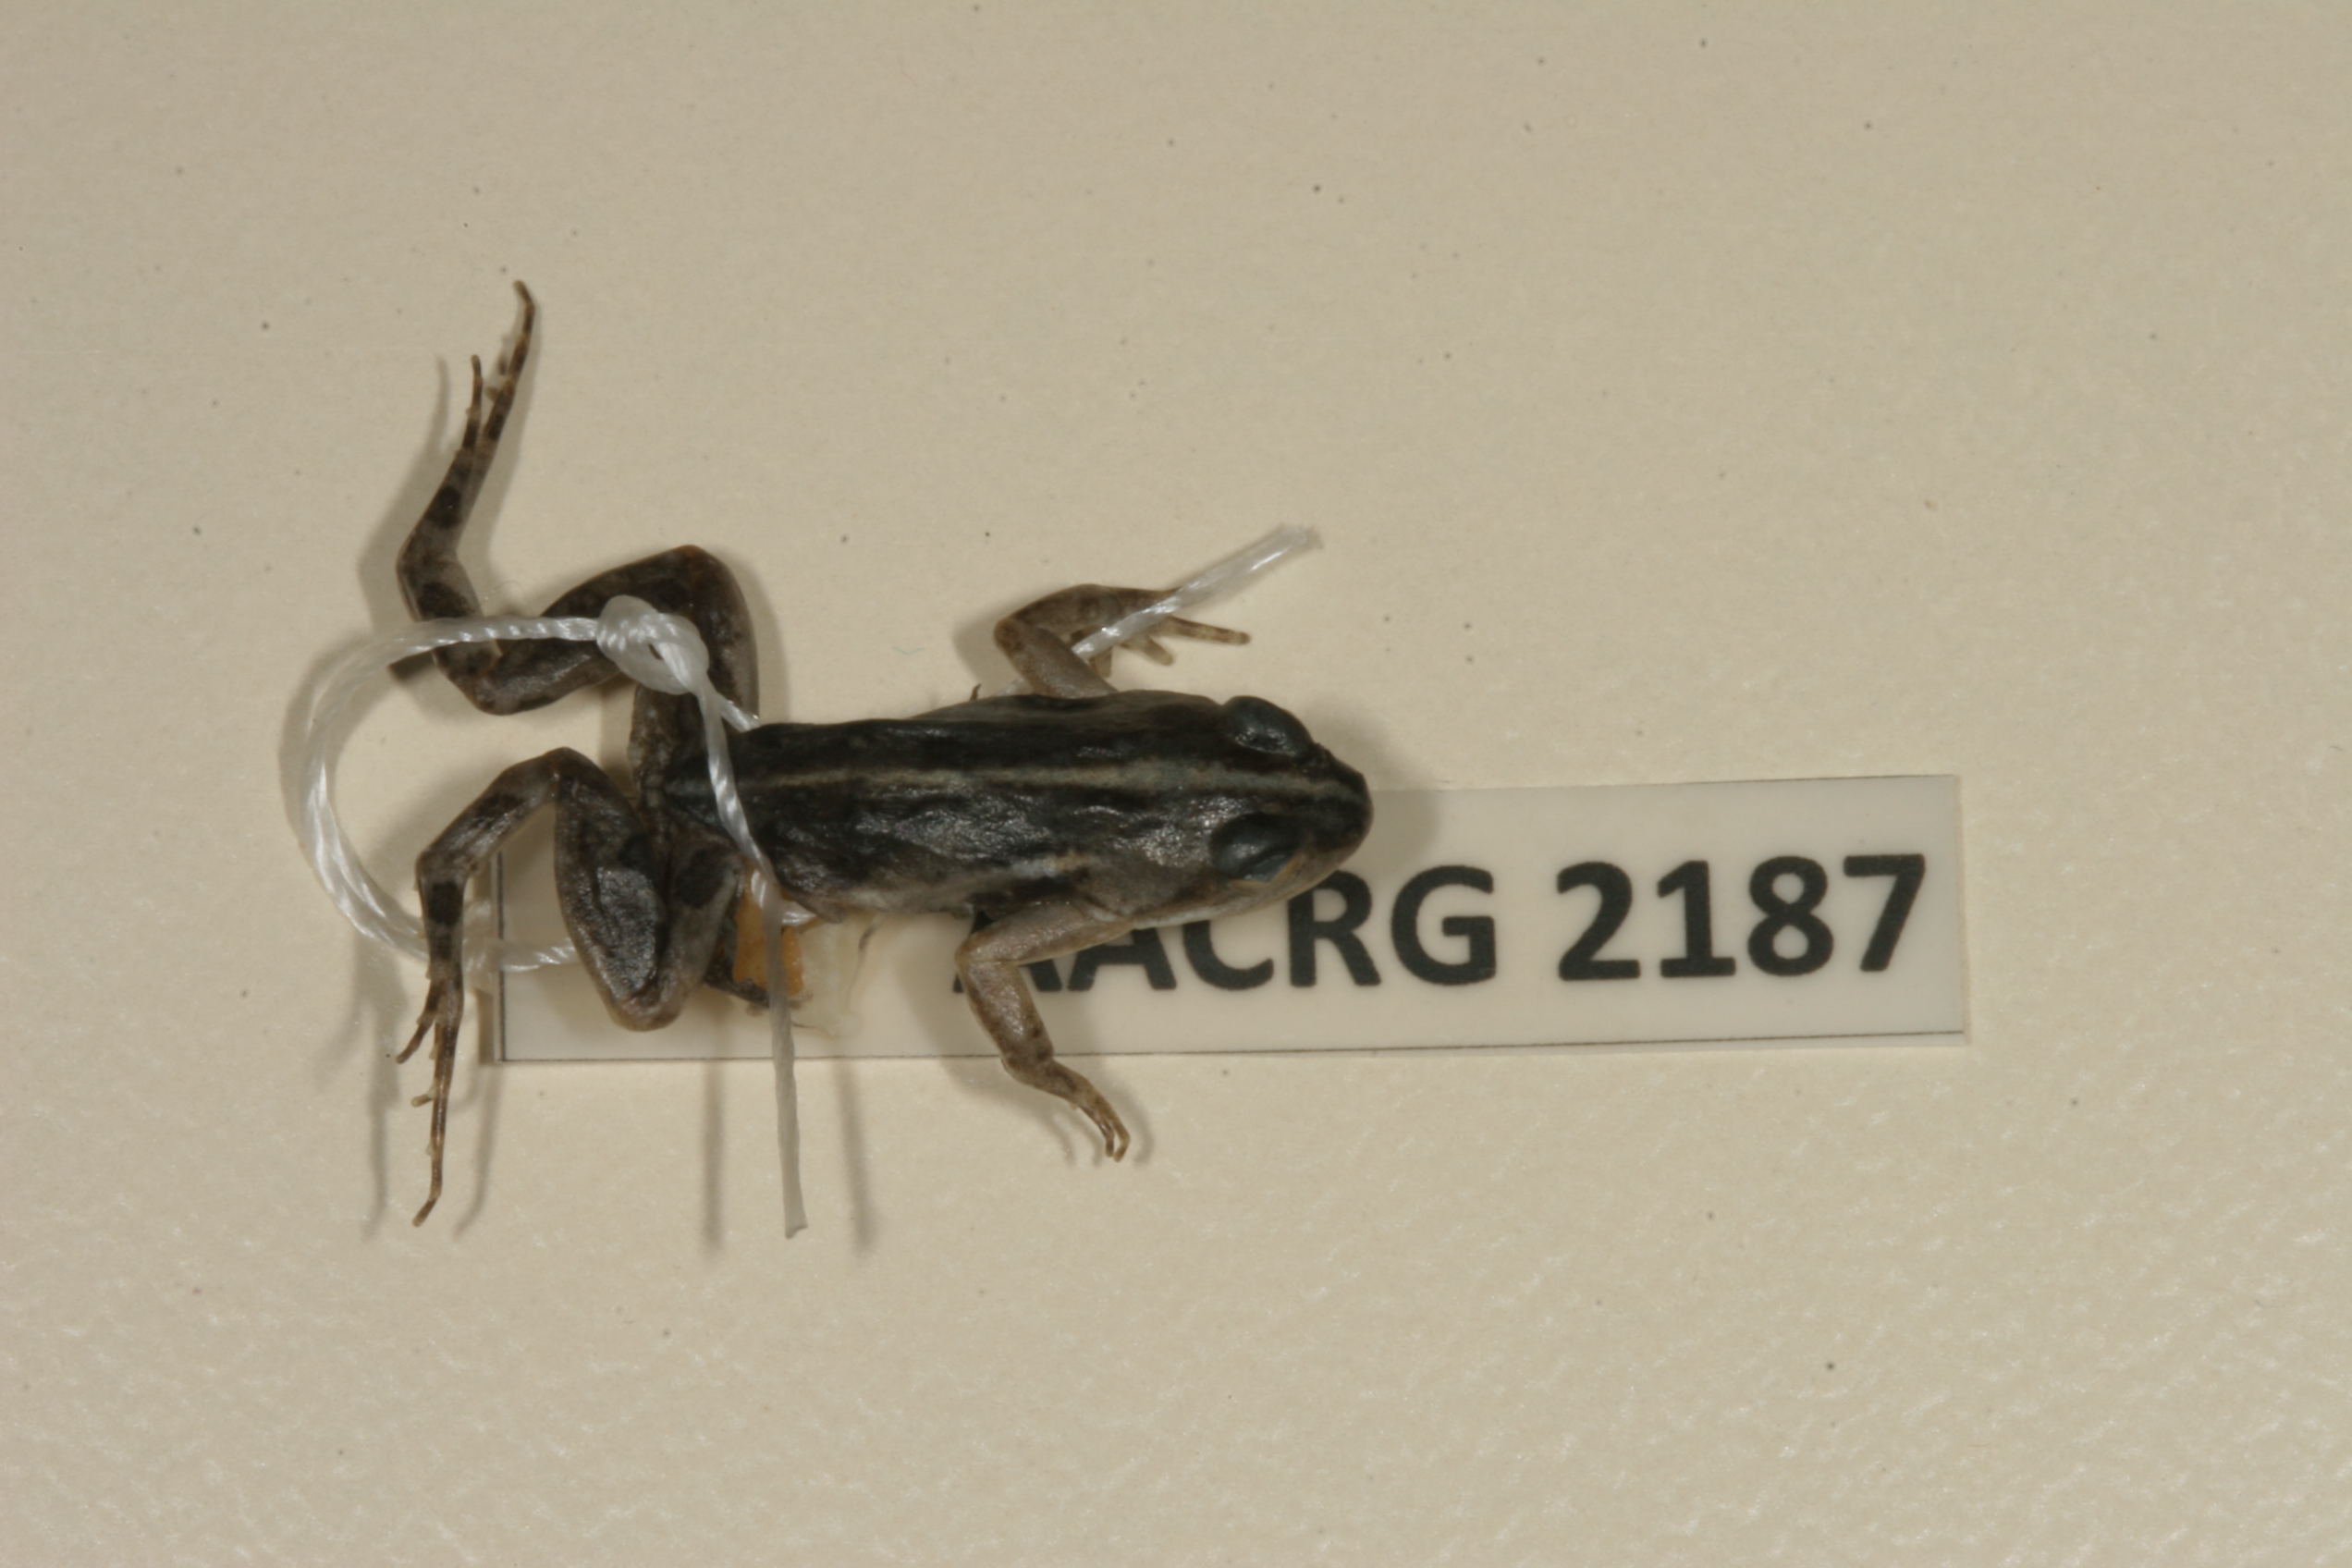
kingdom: Animalia
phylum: Chordata
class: Amphibia
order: Anura
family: Pyxicephalidae
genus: Cacosternum
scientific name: Cacosternum boettgeri
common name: Boettger's frog
